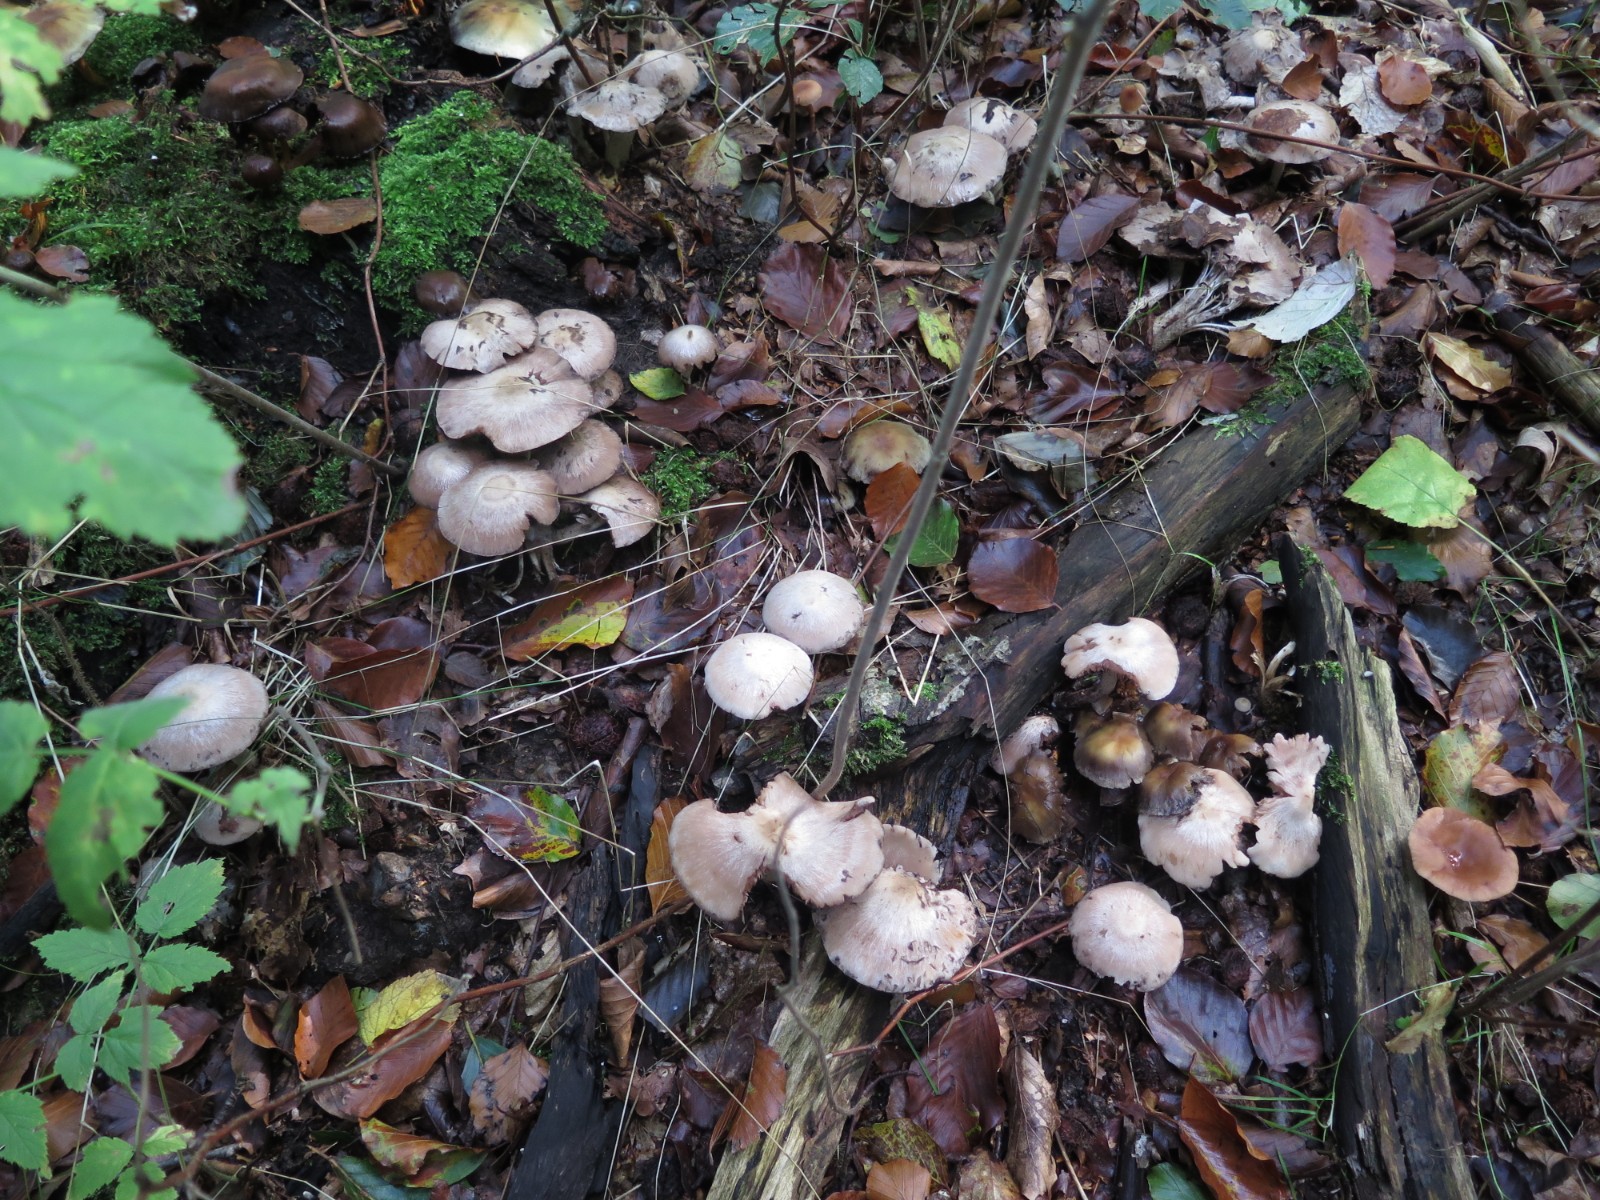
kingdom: Fungi
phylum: Basidiomycota
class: Agaricomycetes
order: Agaricales
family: Psathyrellaceae
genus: Psathyrella
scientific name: Psathyrella cotonea
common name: skællet mørkhat
